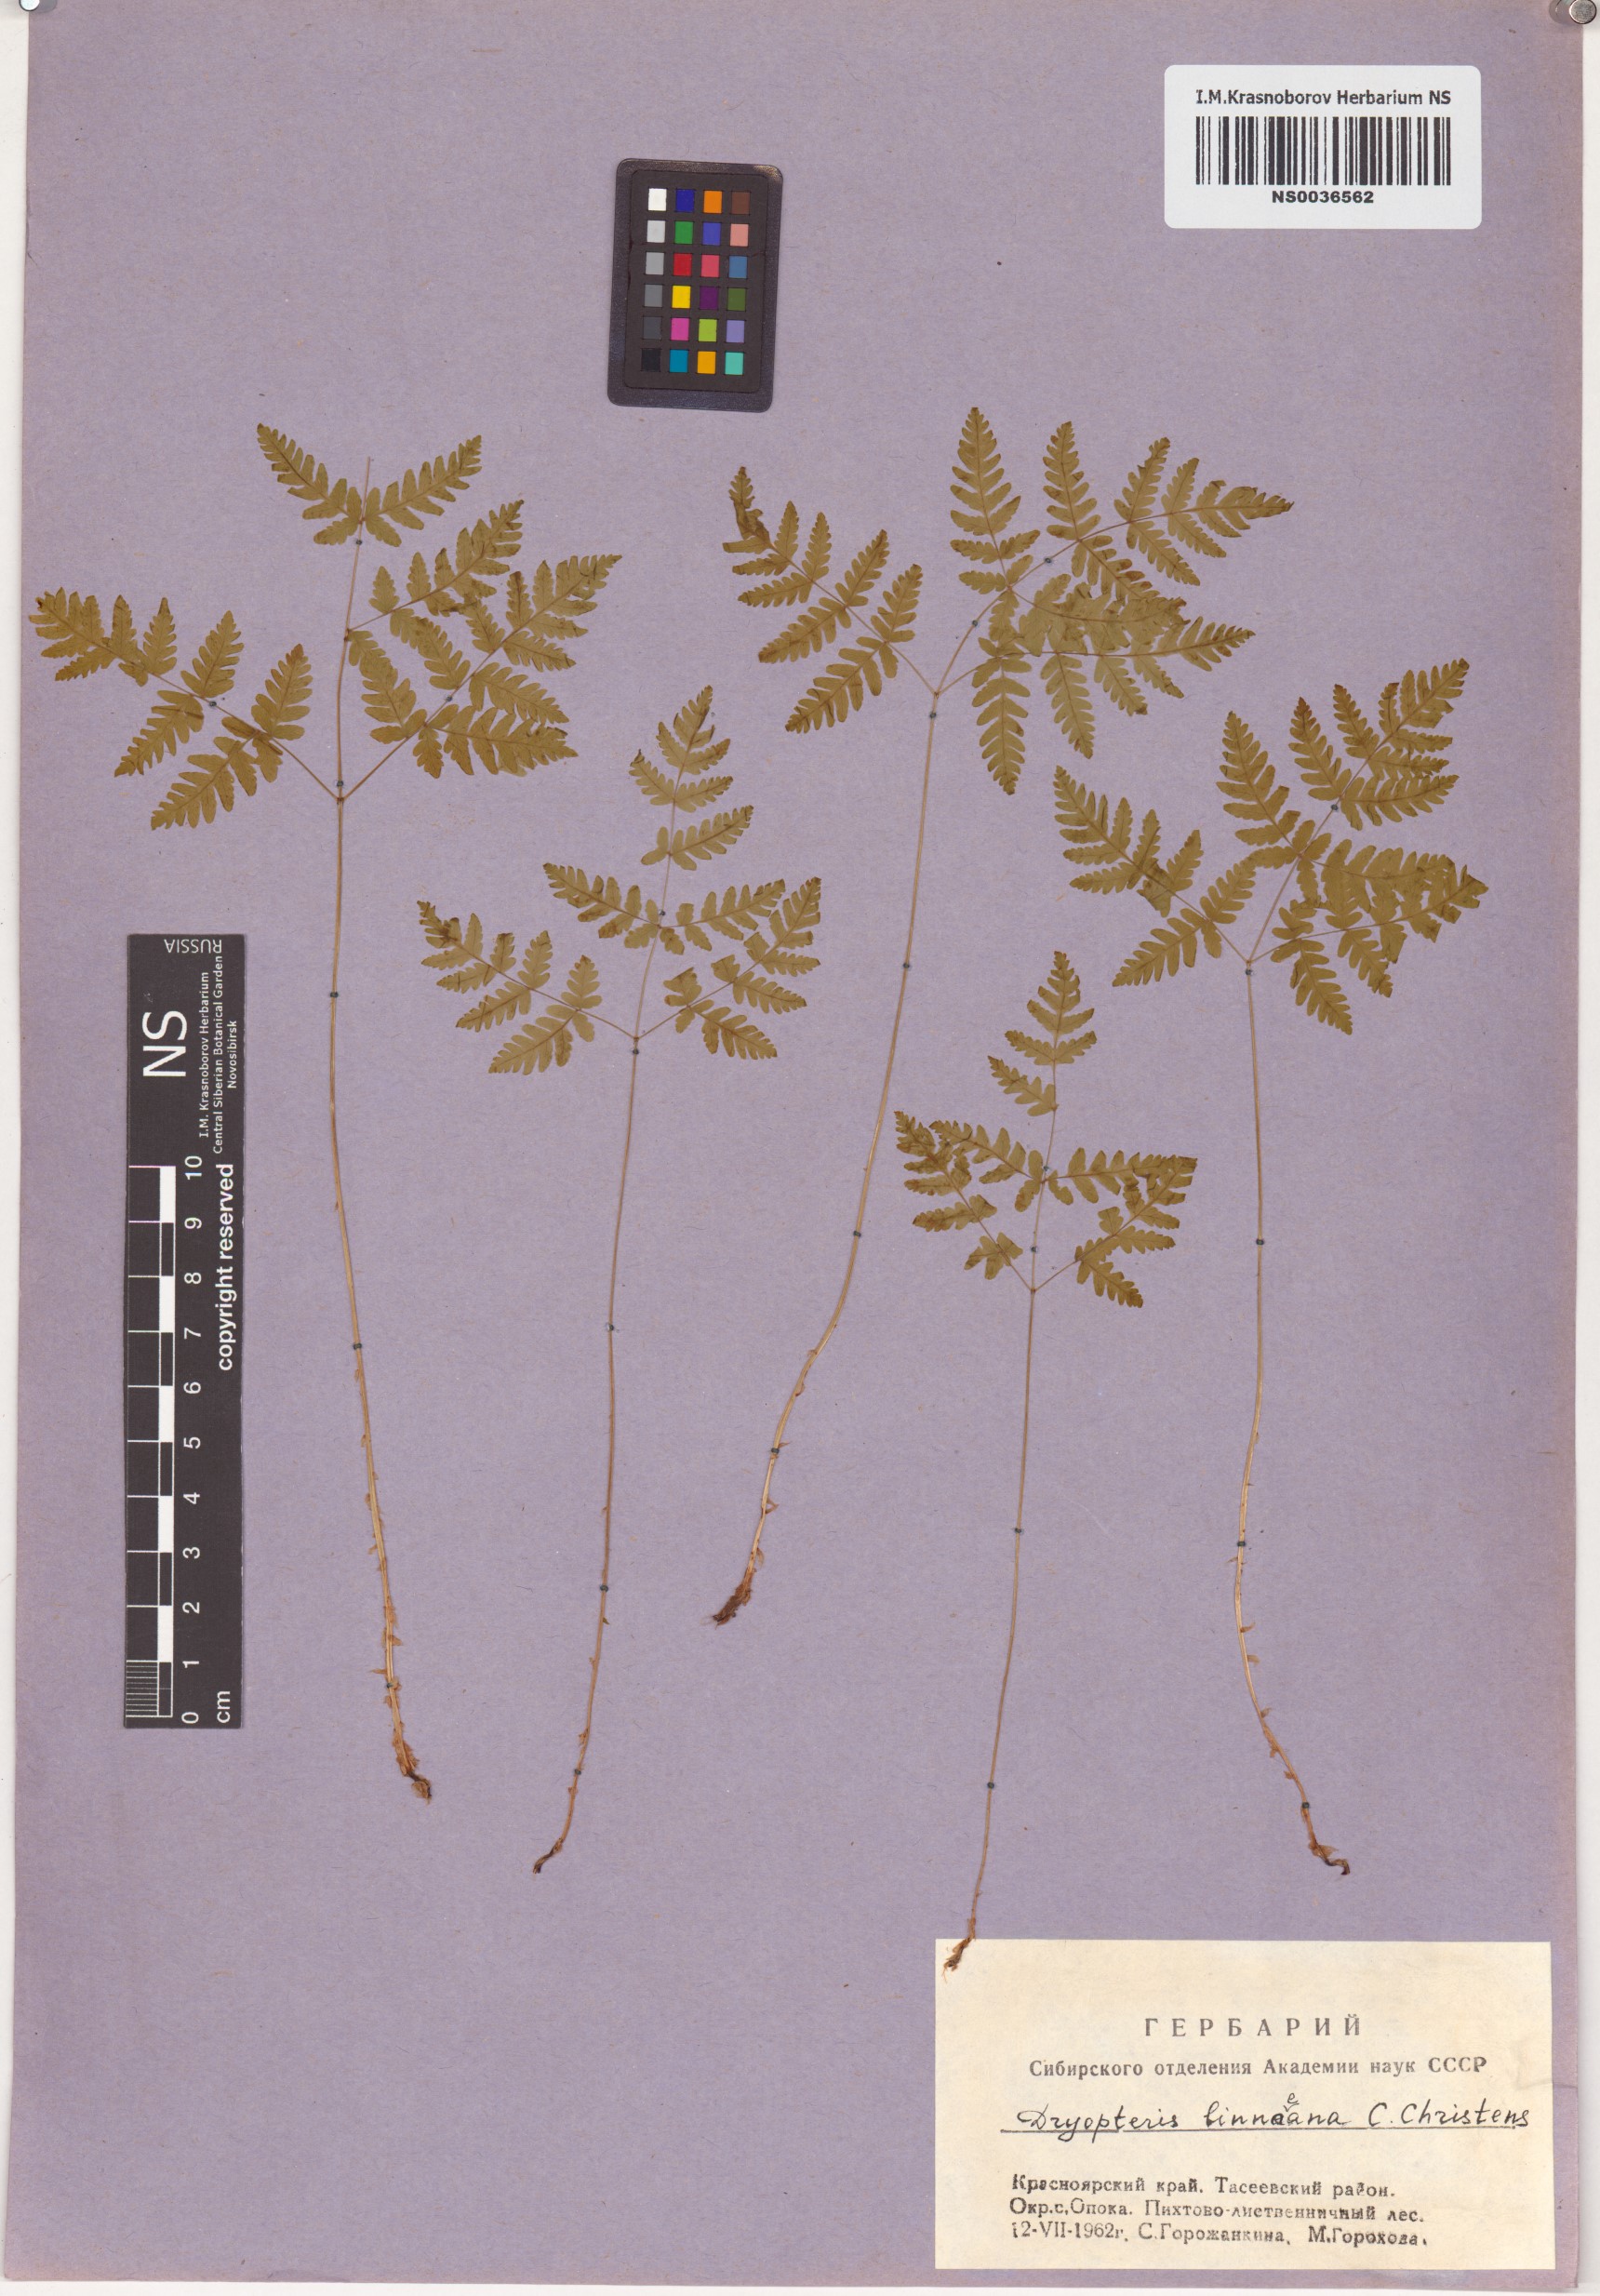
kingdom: Plantae
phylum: Tracheophyta
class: Polypodiopsida
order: Polypodiales
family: Cystopteridaceae
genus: Gymnocarpium
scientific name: Gymnocarpium dryopteris
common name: Oak fern
